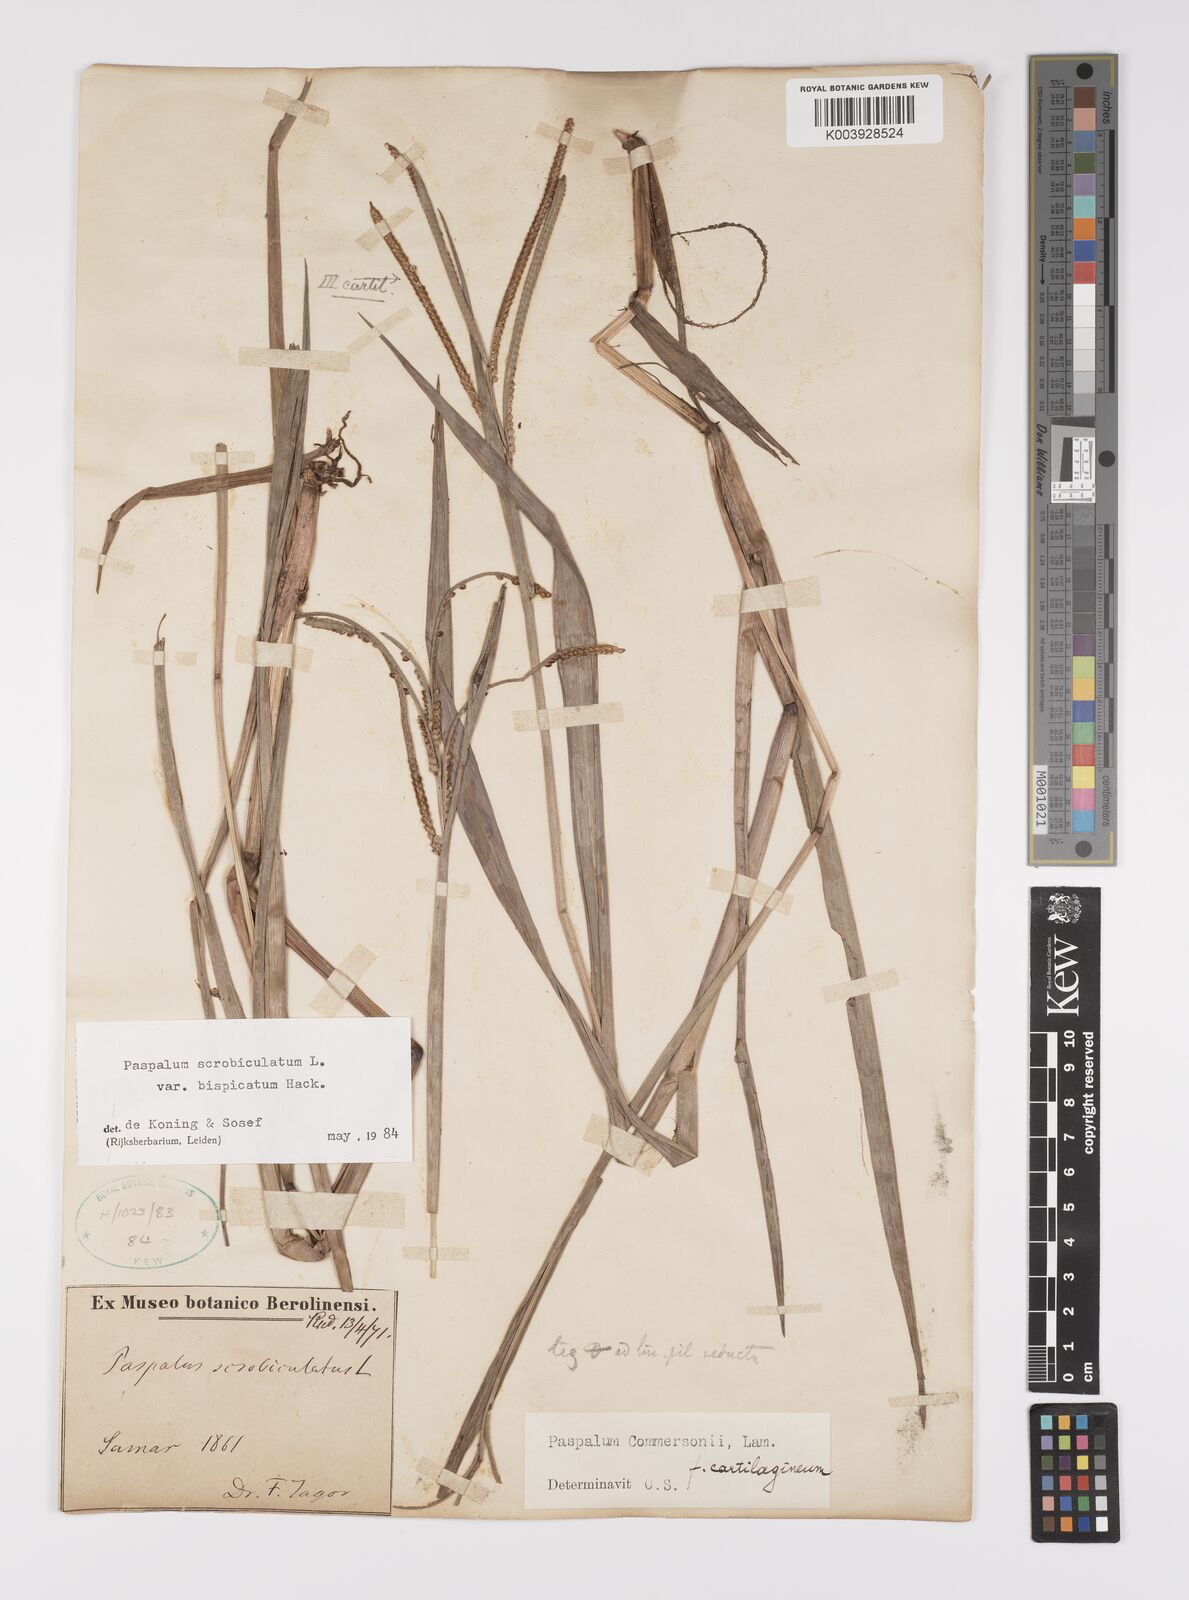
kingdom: Plantae
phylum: Tracheophyta
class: Liliopsida
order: Poales
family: Poaceae
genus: Paspalum
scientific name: Paspalum scrobiculatum
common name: Kodo millet
